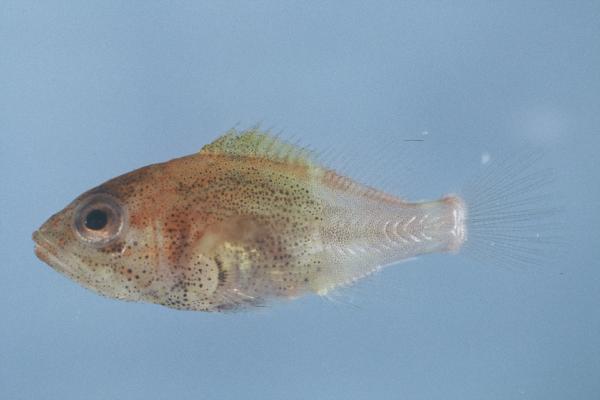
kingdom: Animalia
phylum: Chordata
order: Perciformes
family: Serranidae
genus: Acanthistius
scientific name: Acanthistius sebastoides
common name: Koester
